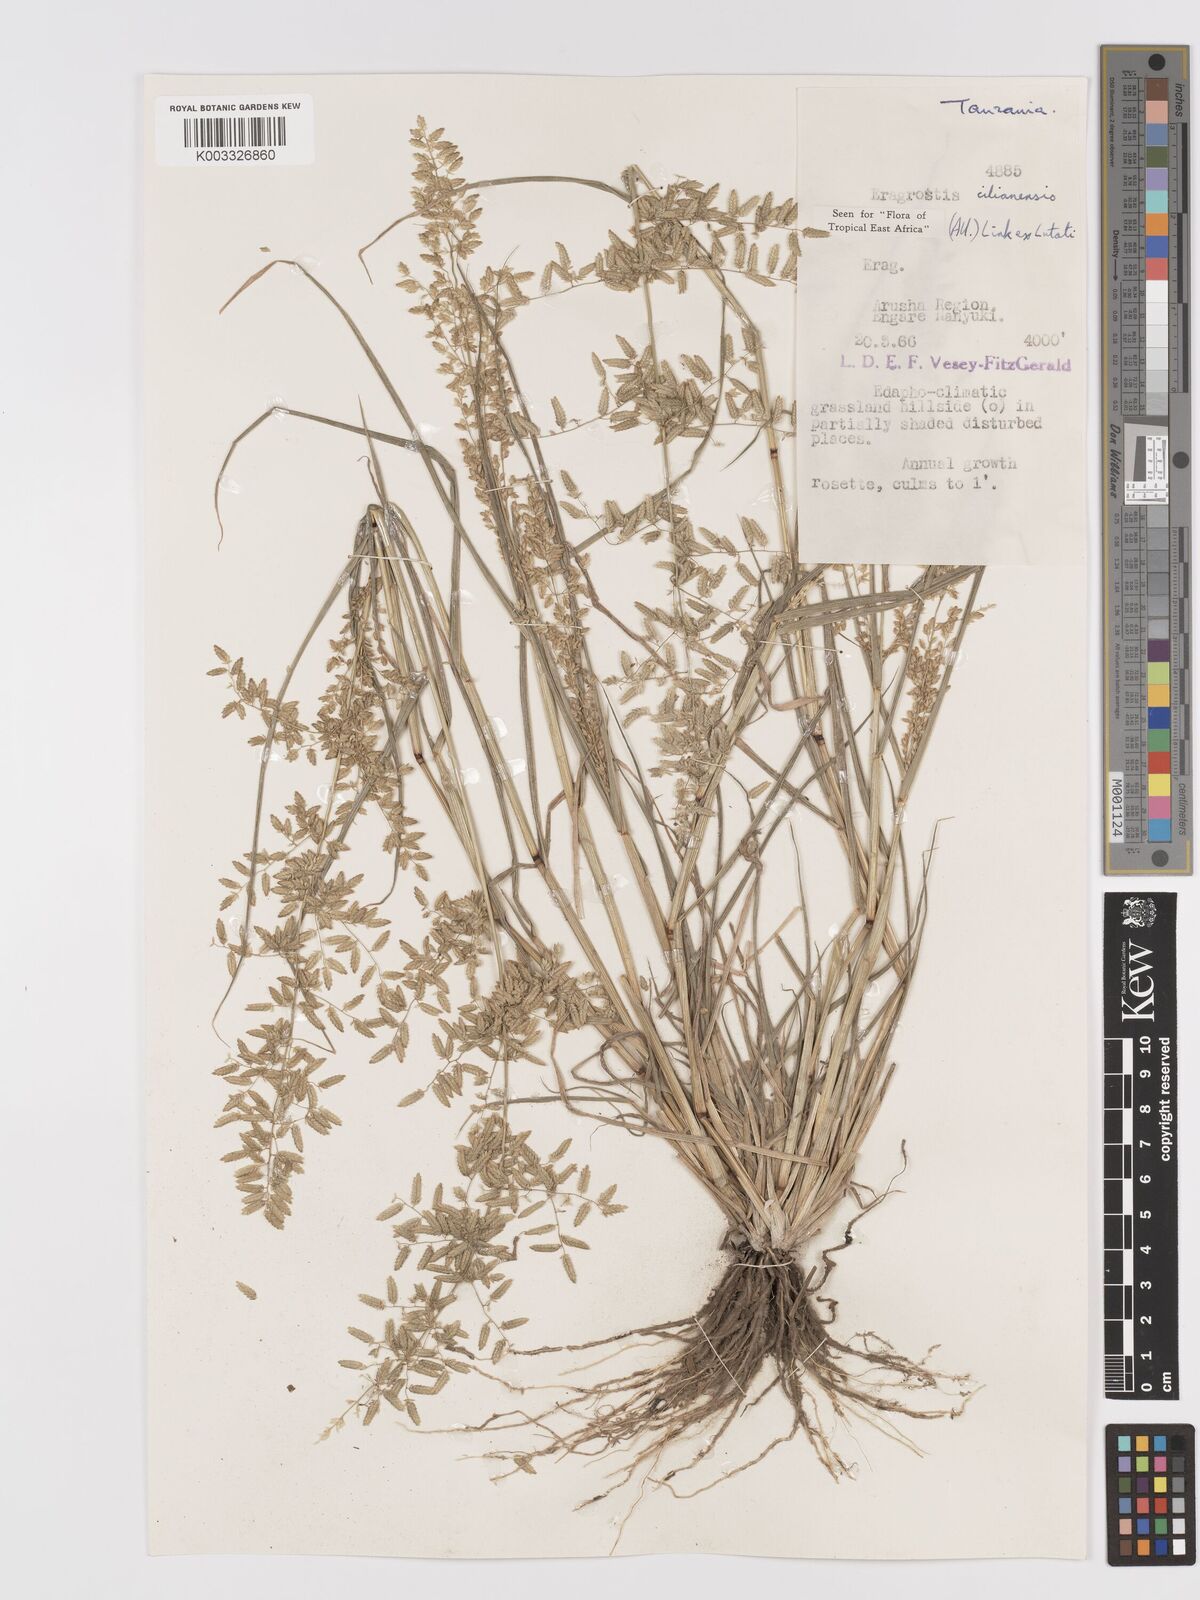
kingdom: Plantae
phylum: Tracheophyta
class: Liliopsida
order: Poales
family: Poaceae
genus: Eragrostis
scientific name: Eragrostis cilianensis
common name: Stinkgrass
